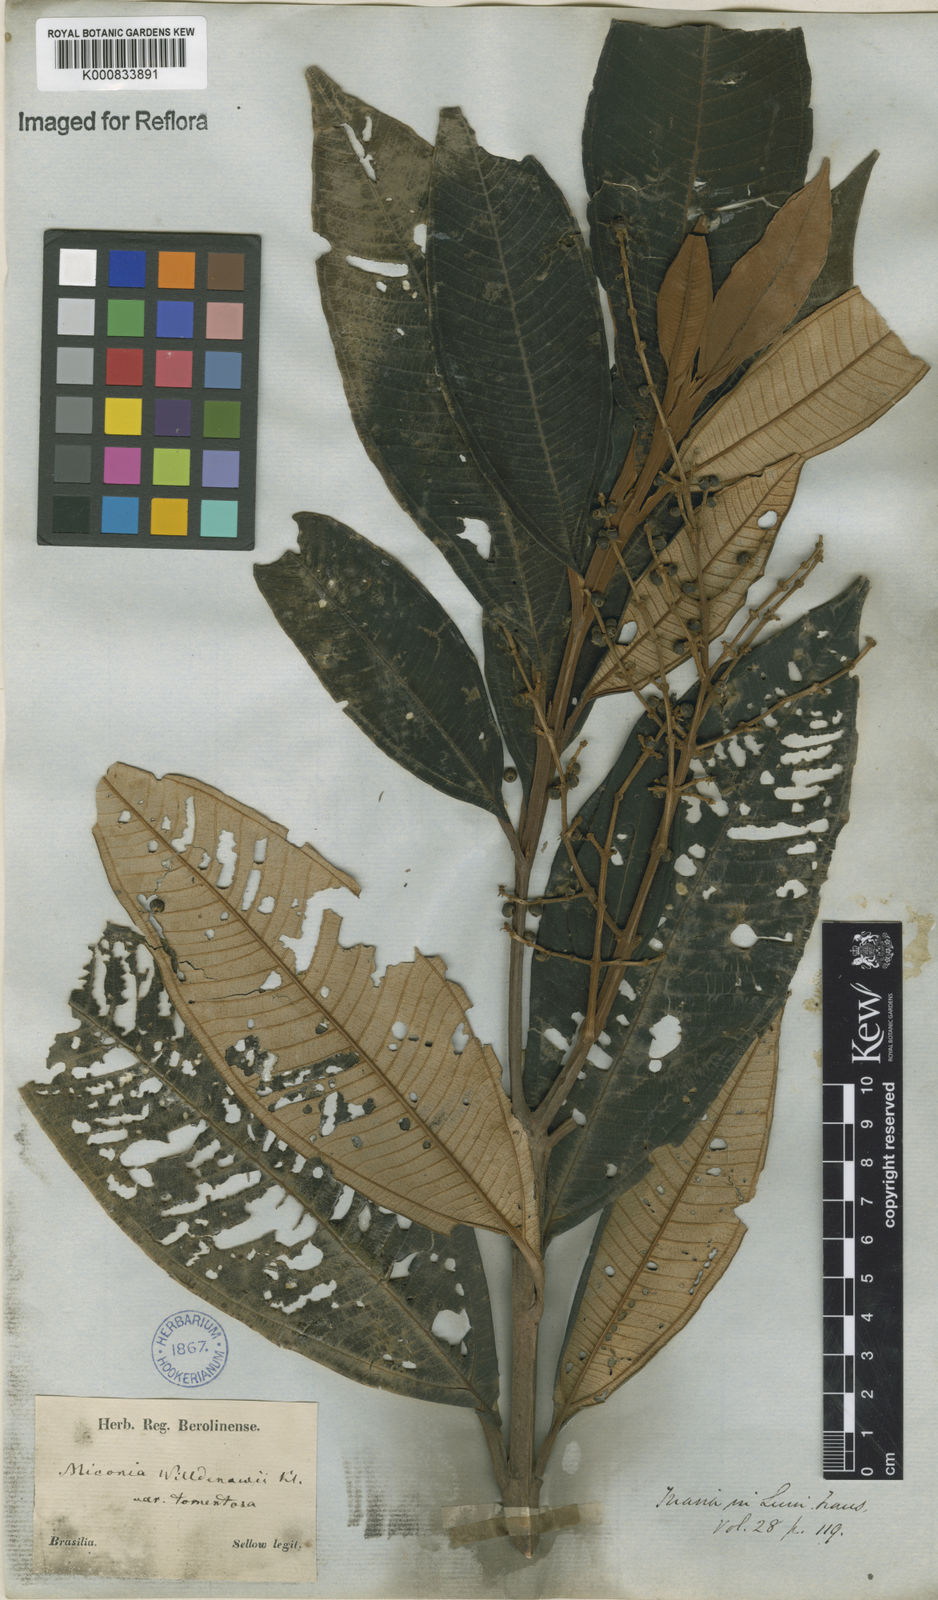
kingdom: Plantae
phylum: Tracheophyta
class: Magnoliopsida
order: Myrtales
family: Melastomataceae
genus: Miconia
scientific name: Miconia willdenowii
